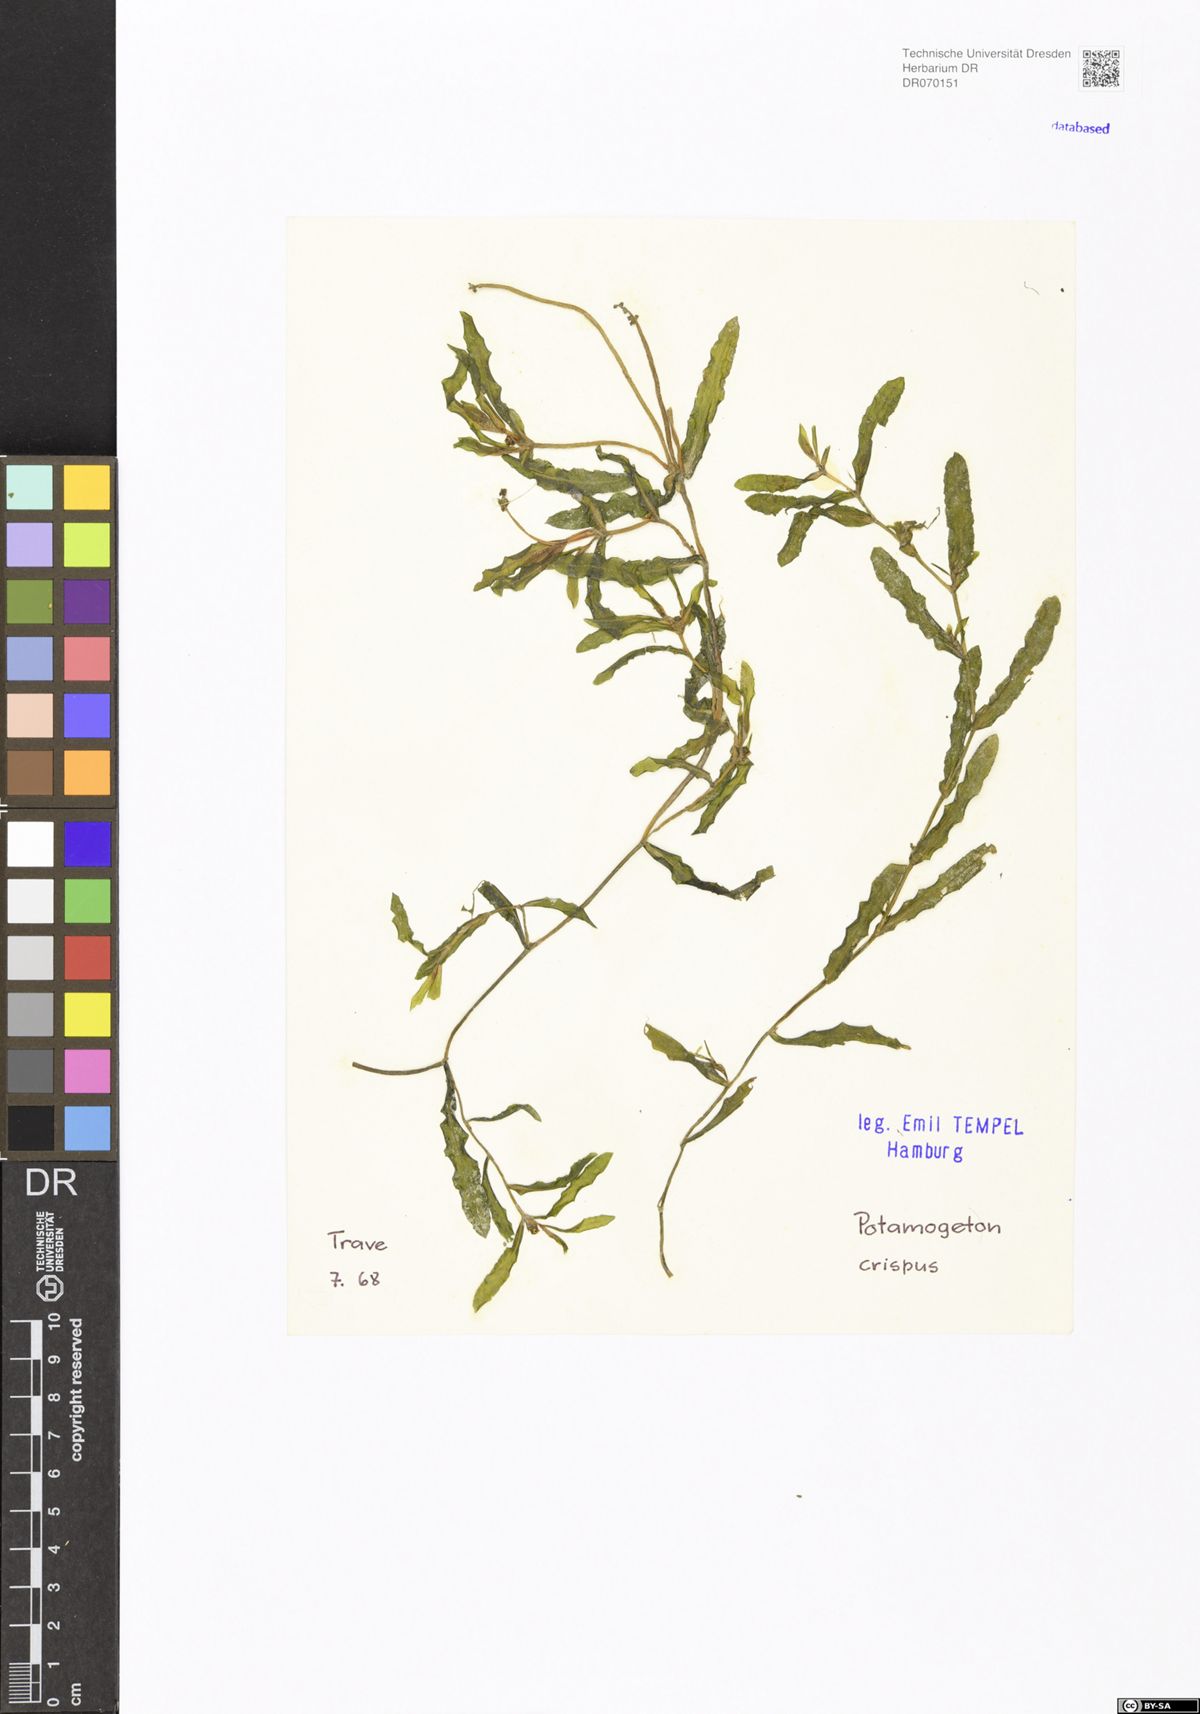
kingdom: Plantae
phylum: Tracheophyta
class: Liliopsida
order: Alismatales
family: Potamogetonaceae
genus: Potamogeton
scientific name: Potamogeton crispus
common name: Curled pondweed
